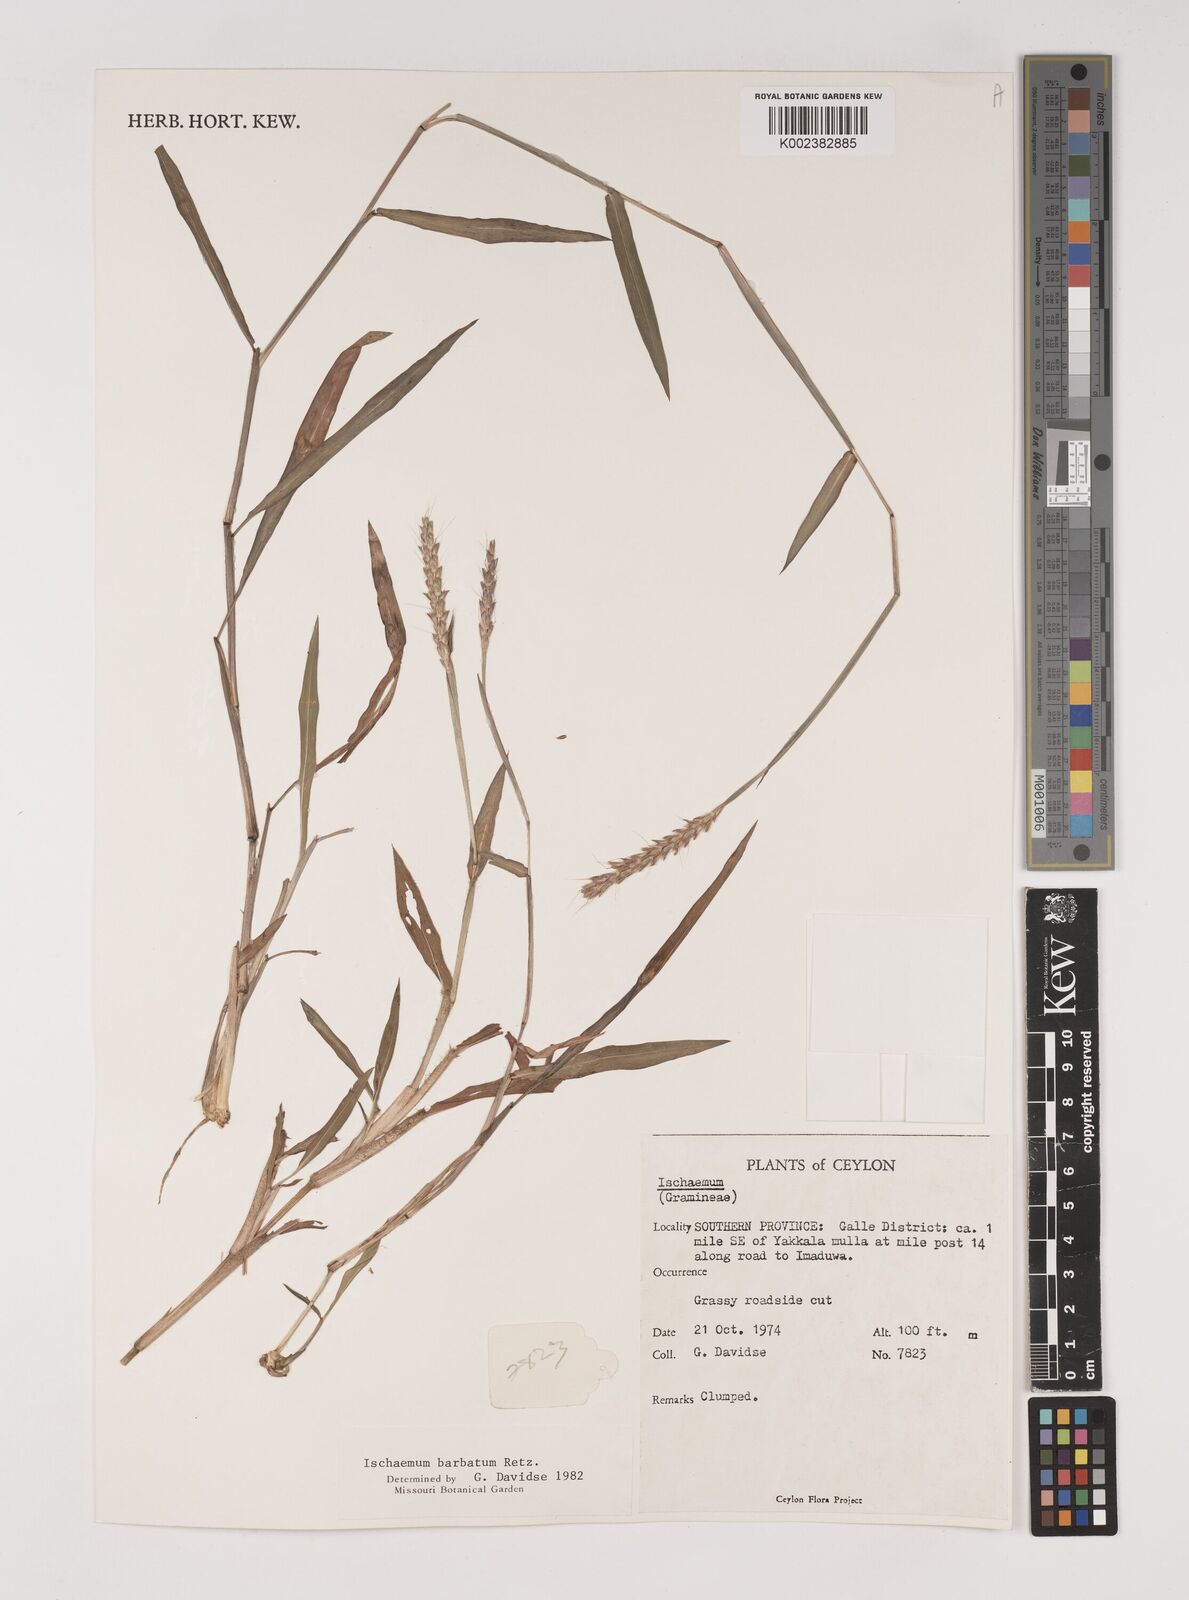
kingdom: Plantae
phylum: Tracheophyta
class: Liliopsida
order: Poales
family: Poaceae
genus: Ischaemum
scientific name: Ischaemum
